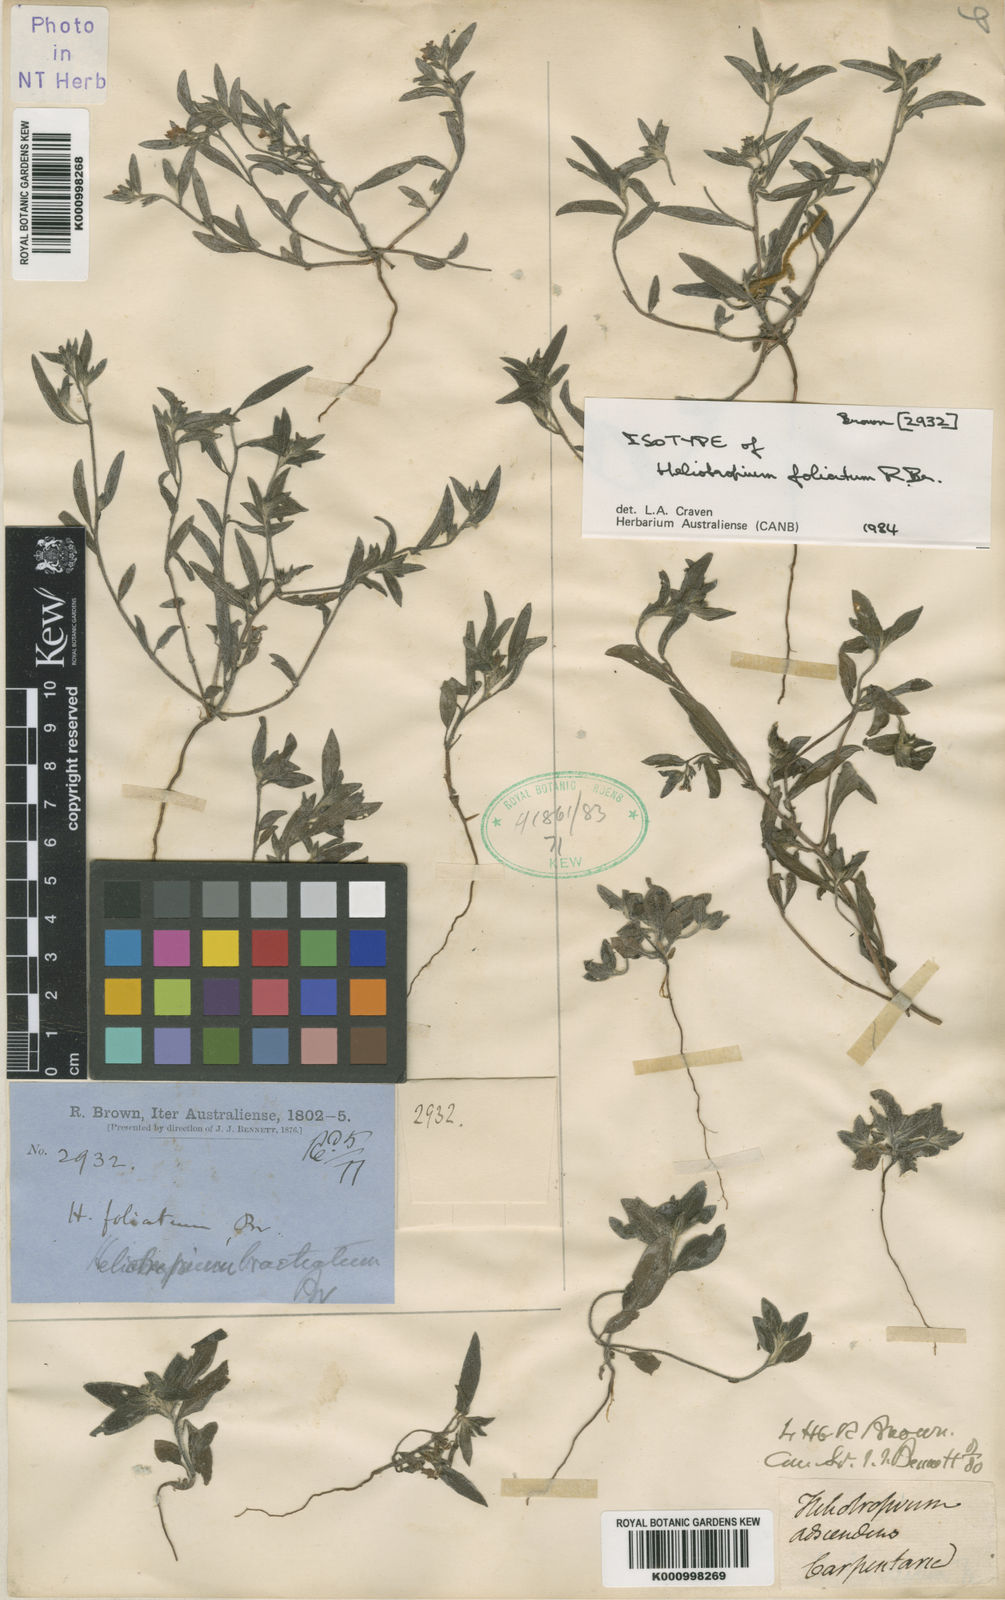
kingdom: Plantae
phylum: Tracheophyta
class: Magnoliopsida
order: Boraginales
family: Heliotropiaceae
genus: Euploca
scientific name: Euploca bracteata
